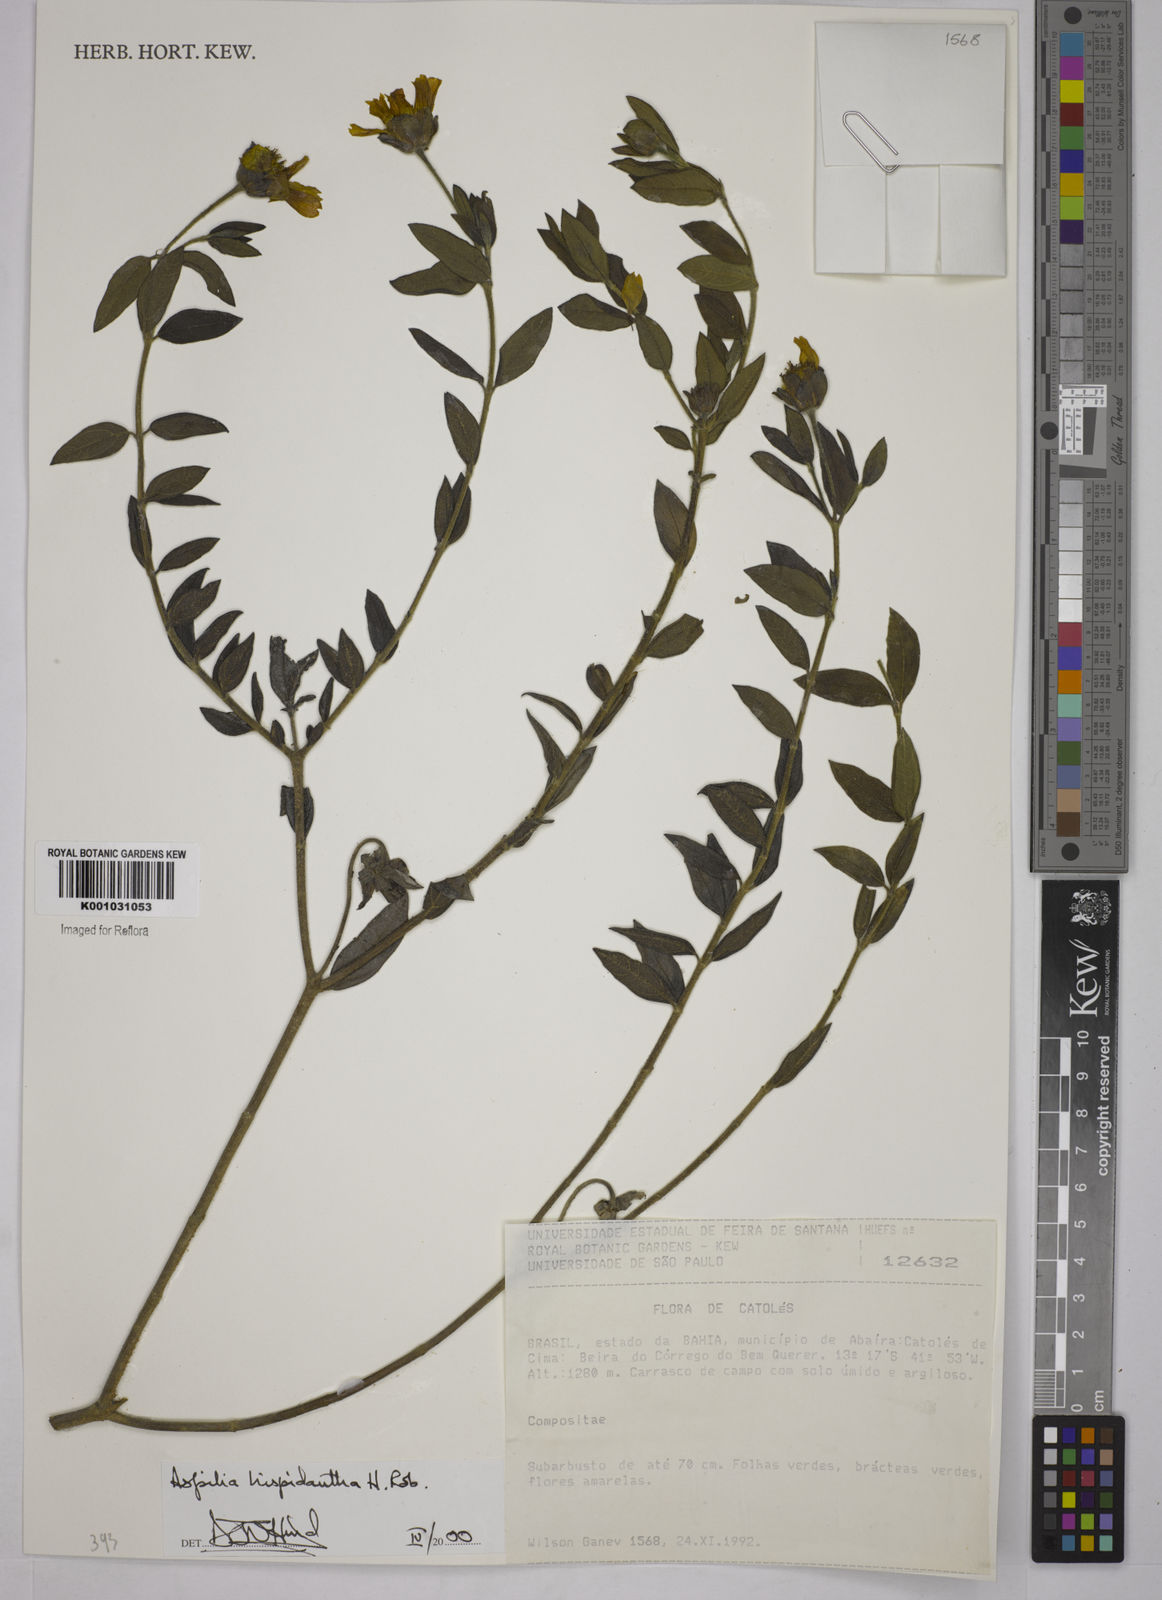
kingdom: Plantae
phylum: Tracheophyta
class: Magnoliopsida
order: Asterales
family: Asteraceae
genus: Wedelia
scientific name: Wedelia subalpestris
